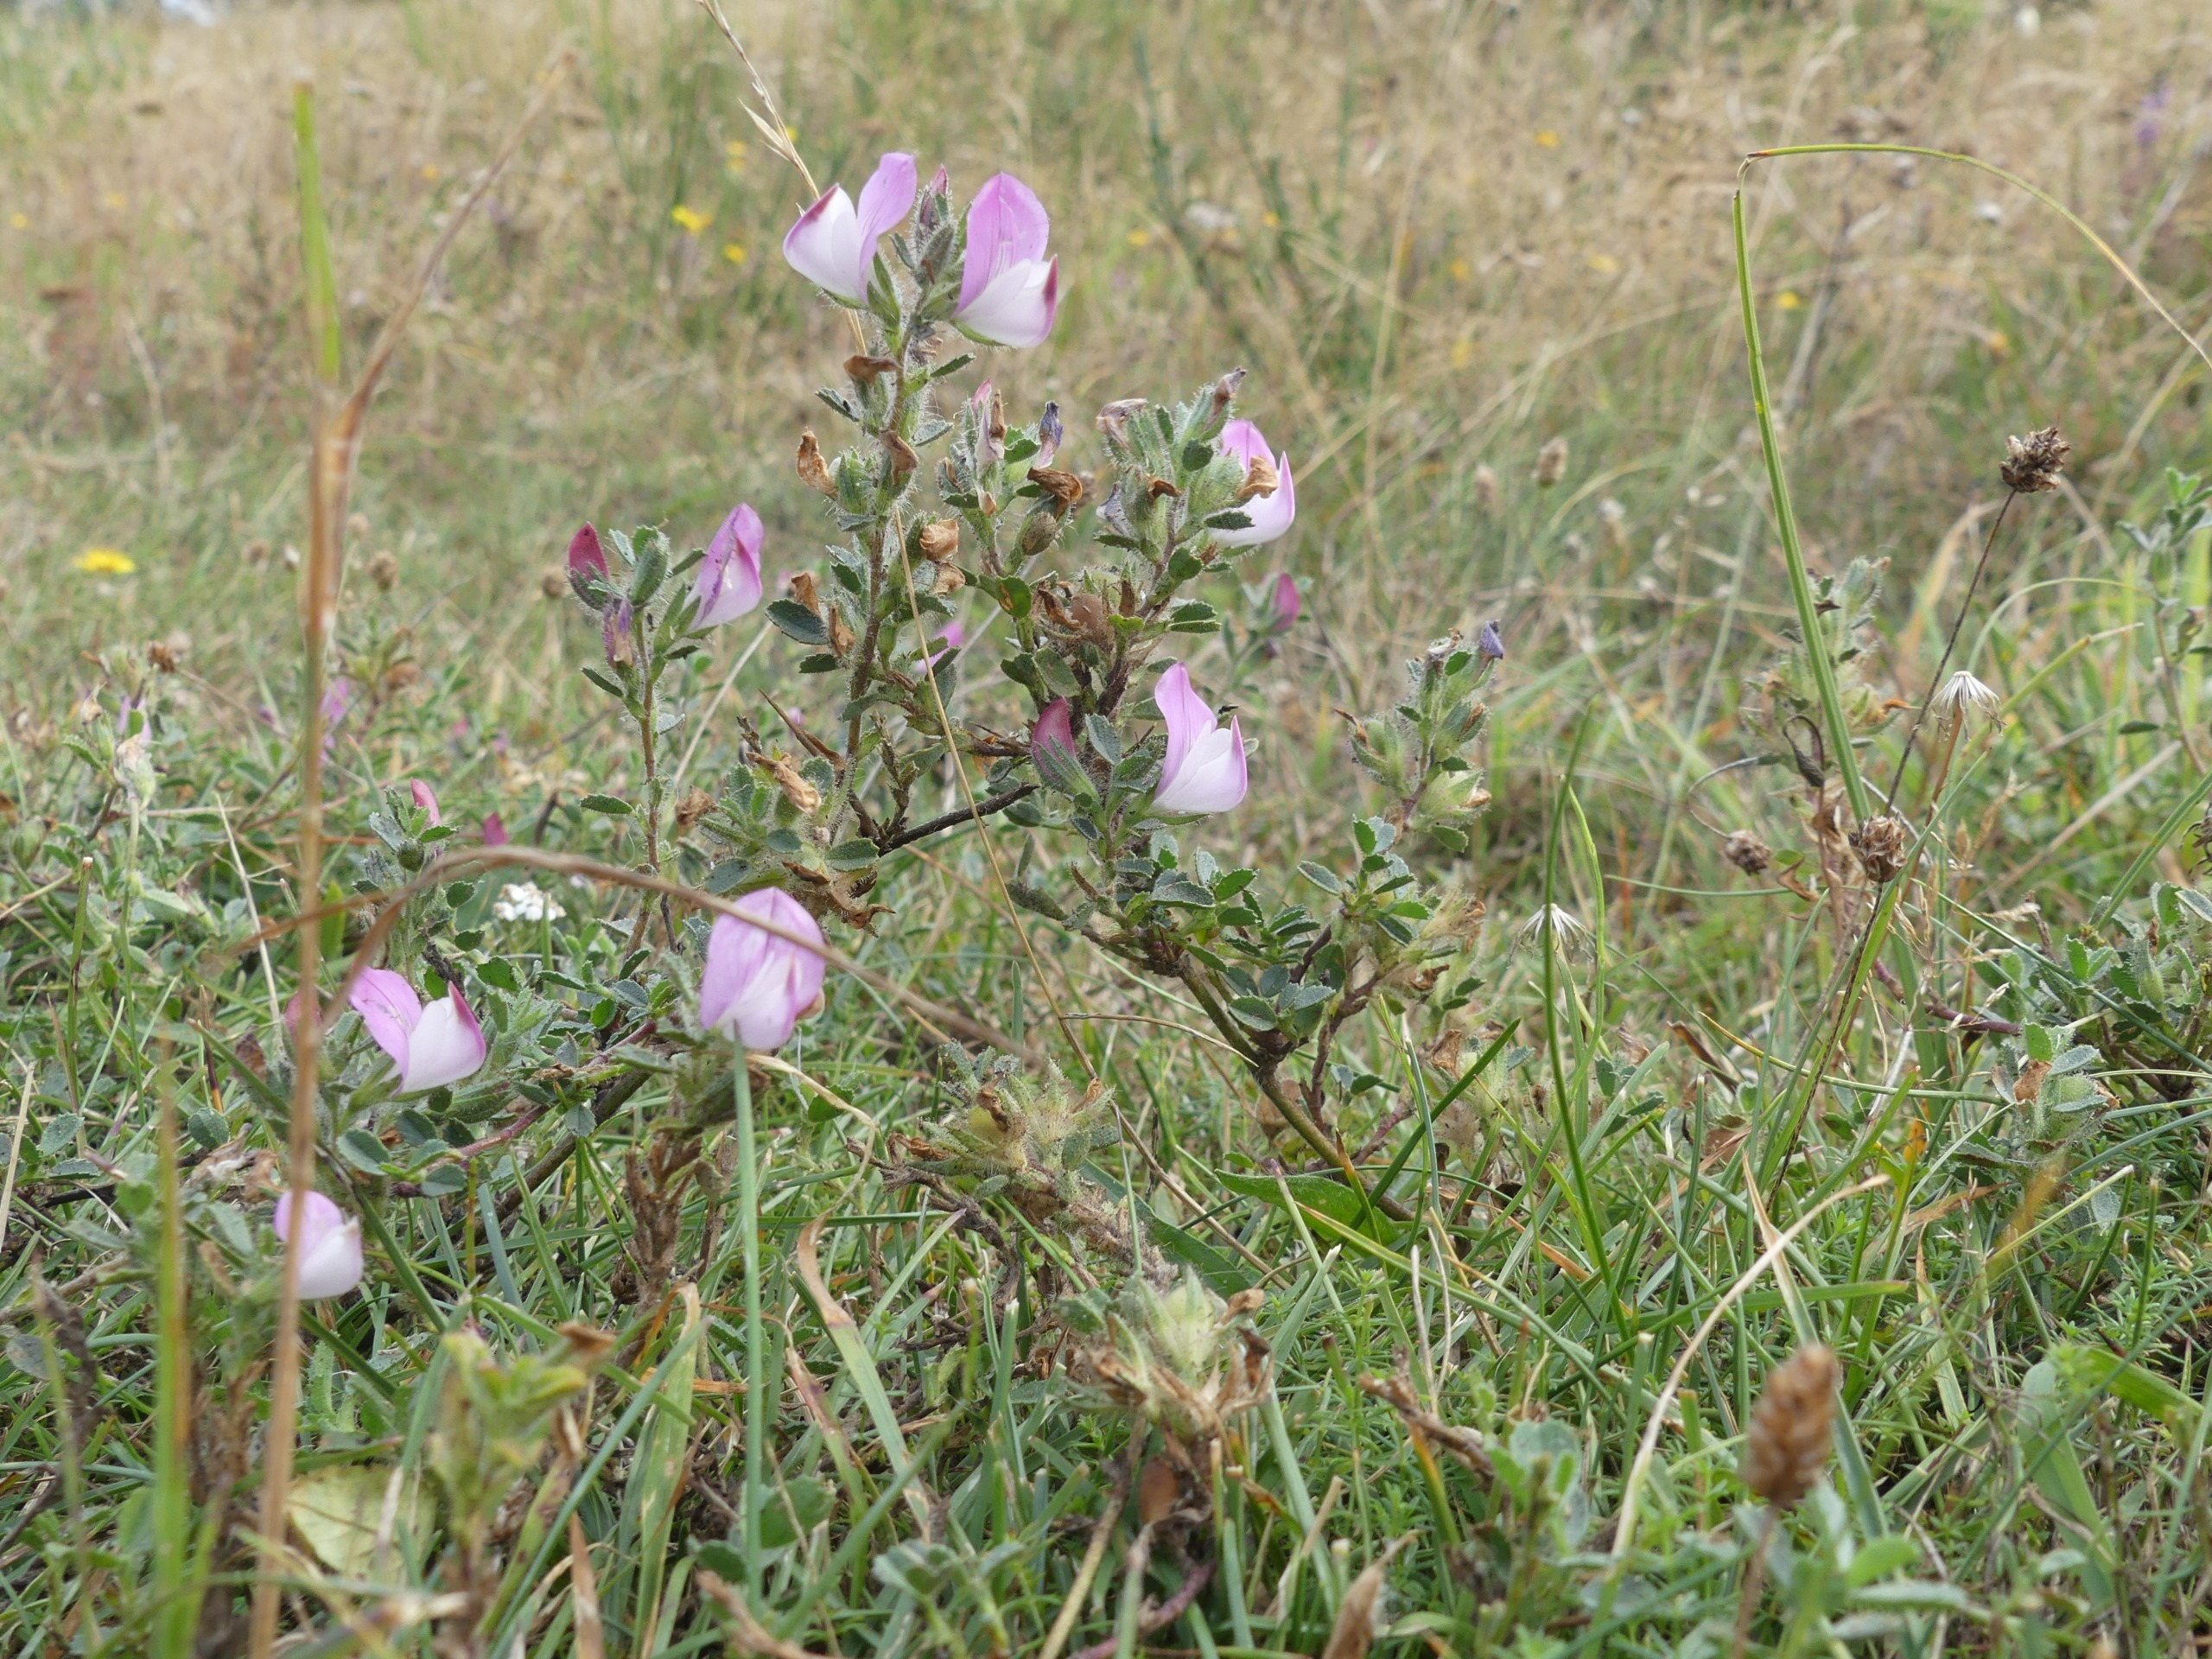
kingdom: Plantae
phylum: Tracheophyta
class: Magnoliopsida
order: Fabales
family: Fabaceae
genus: Ononis
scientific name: Ononis spinosa
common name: Mark-krageklo
